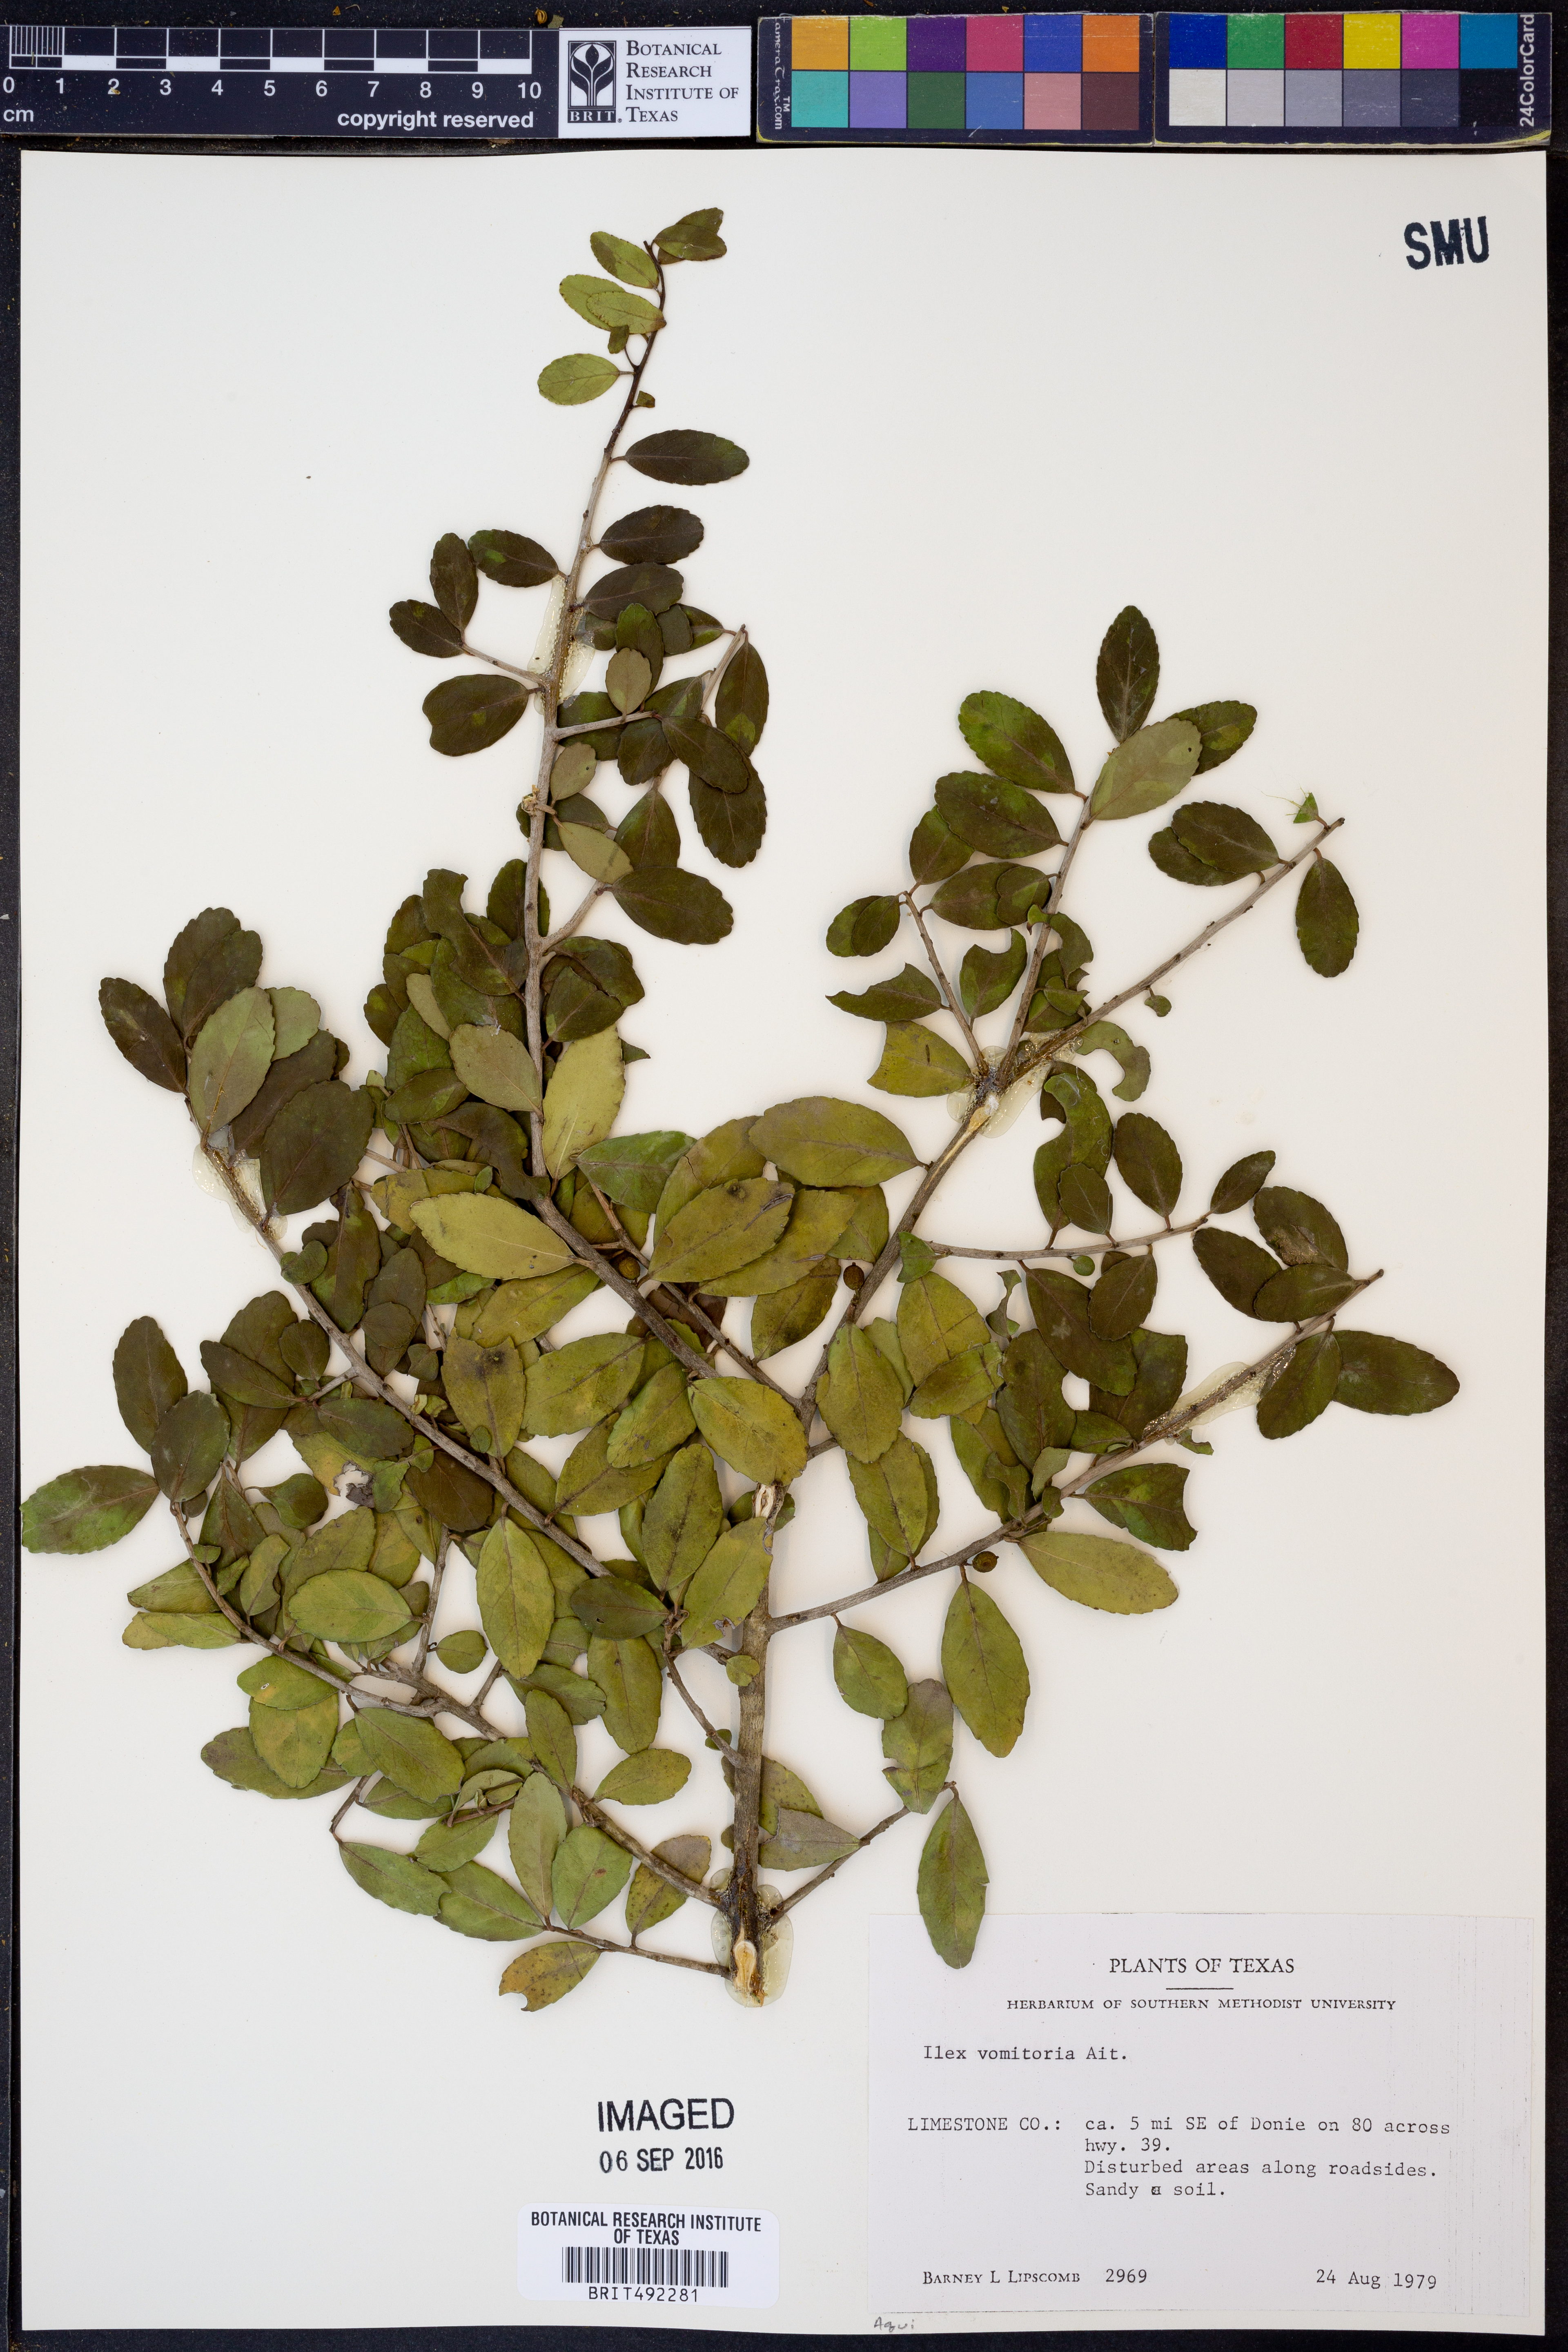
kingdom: Plantae
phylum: Tracheophyta
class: Magnoliopsida
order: Aquifoliales
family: Aquifoliaceae
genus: Ilex
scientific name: Ilex vomitoria
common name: Yaupon holly
